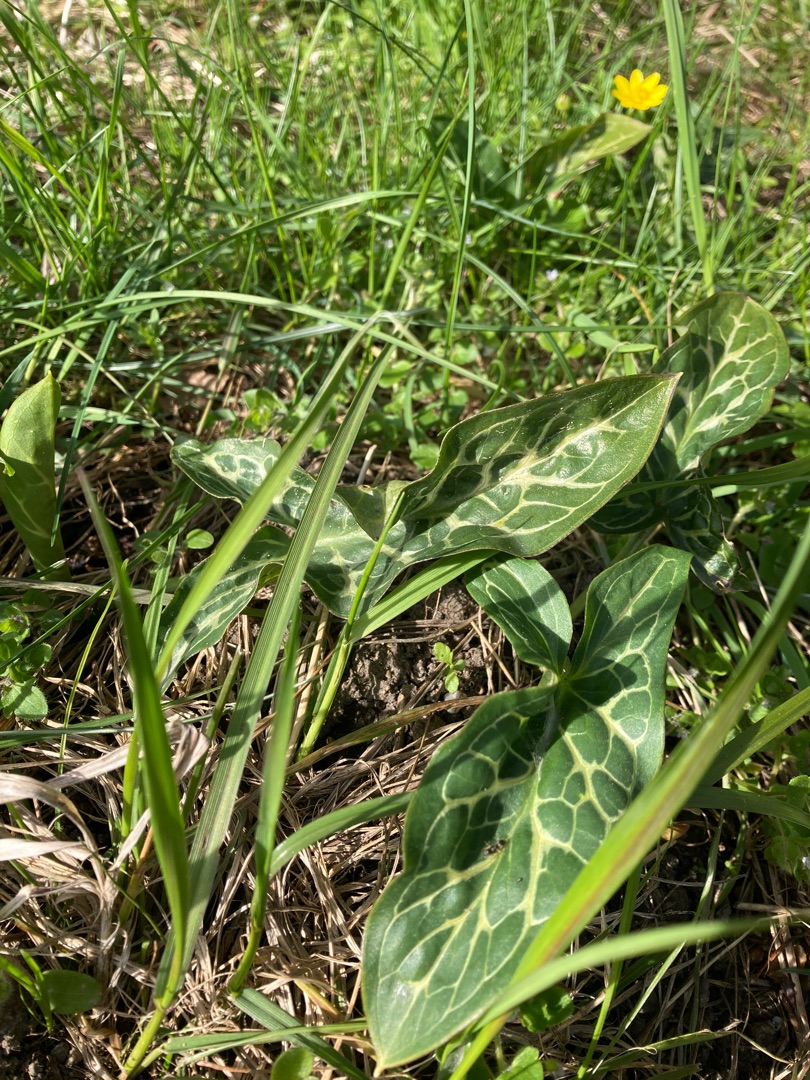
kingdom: Plantae
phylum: Tracheophyta
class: Liliopsida
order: Alismatales
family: Araceae
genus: Arum
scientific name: Arum italicum
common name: Italiensk arum
